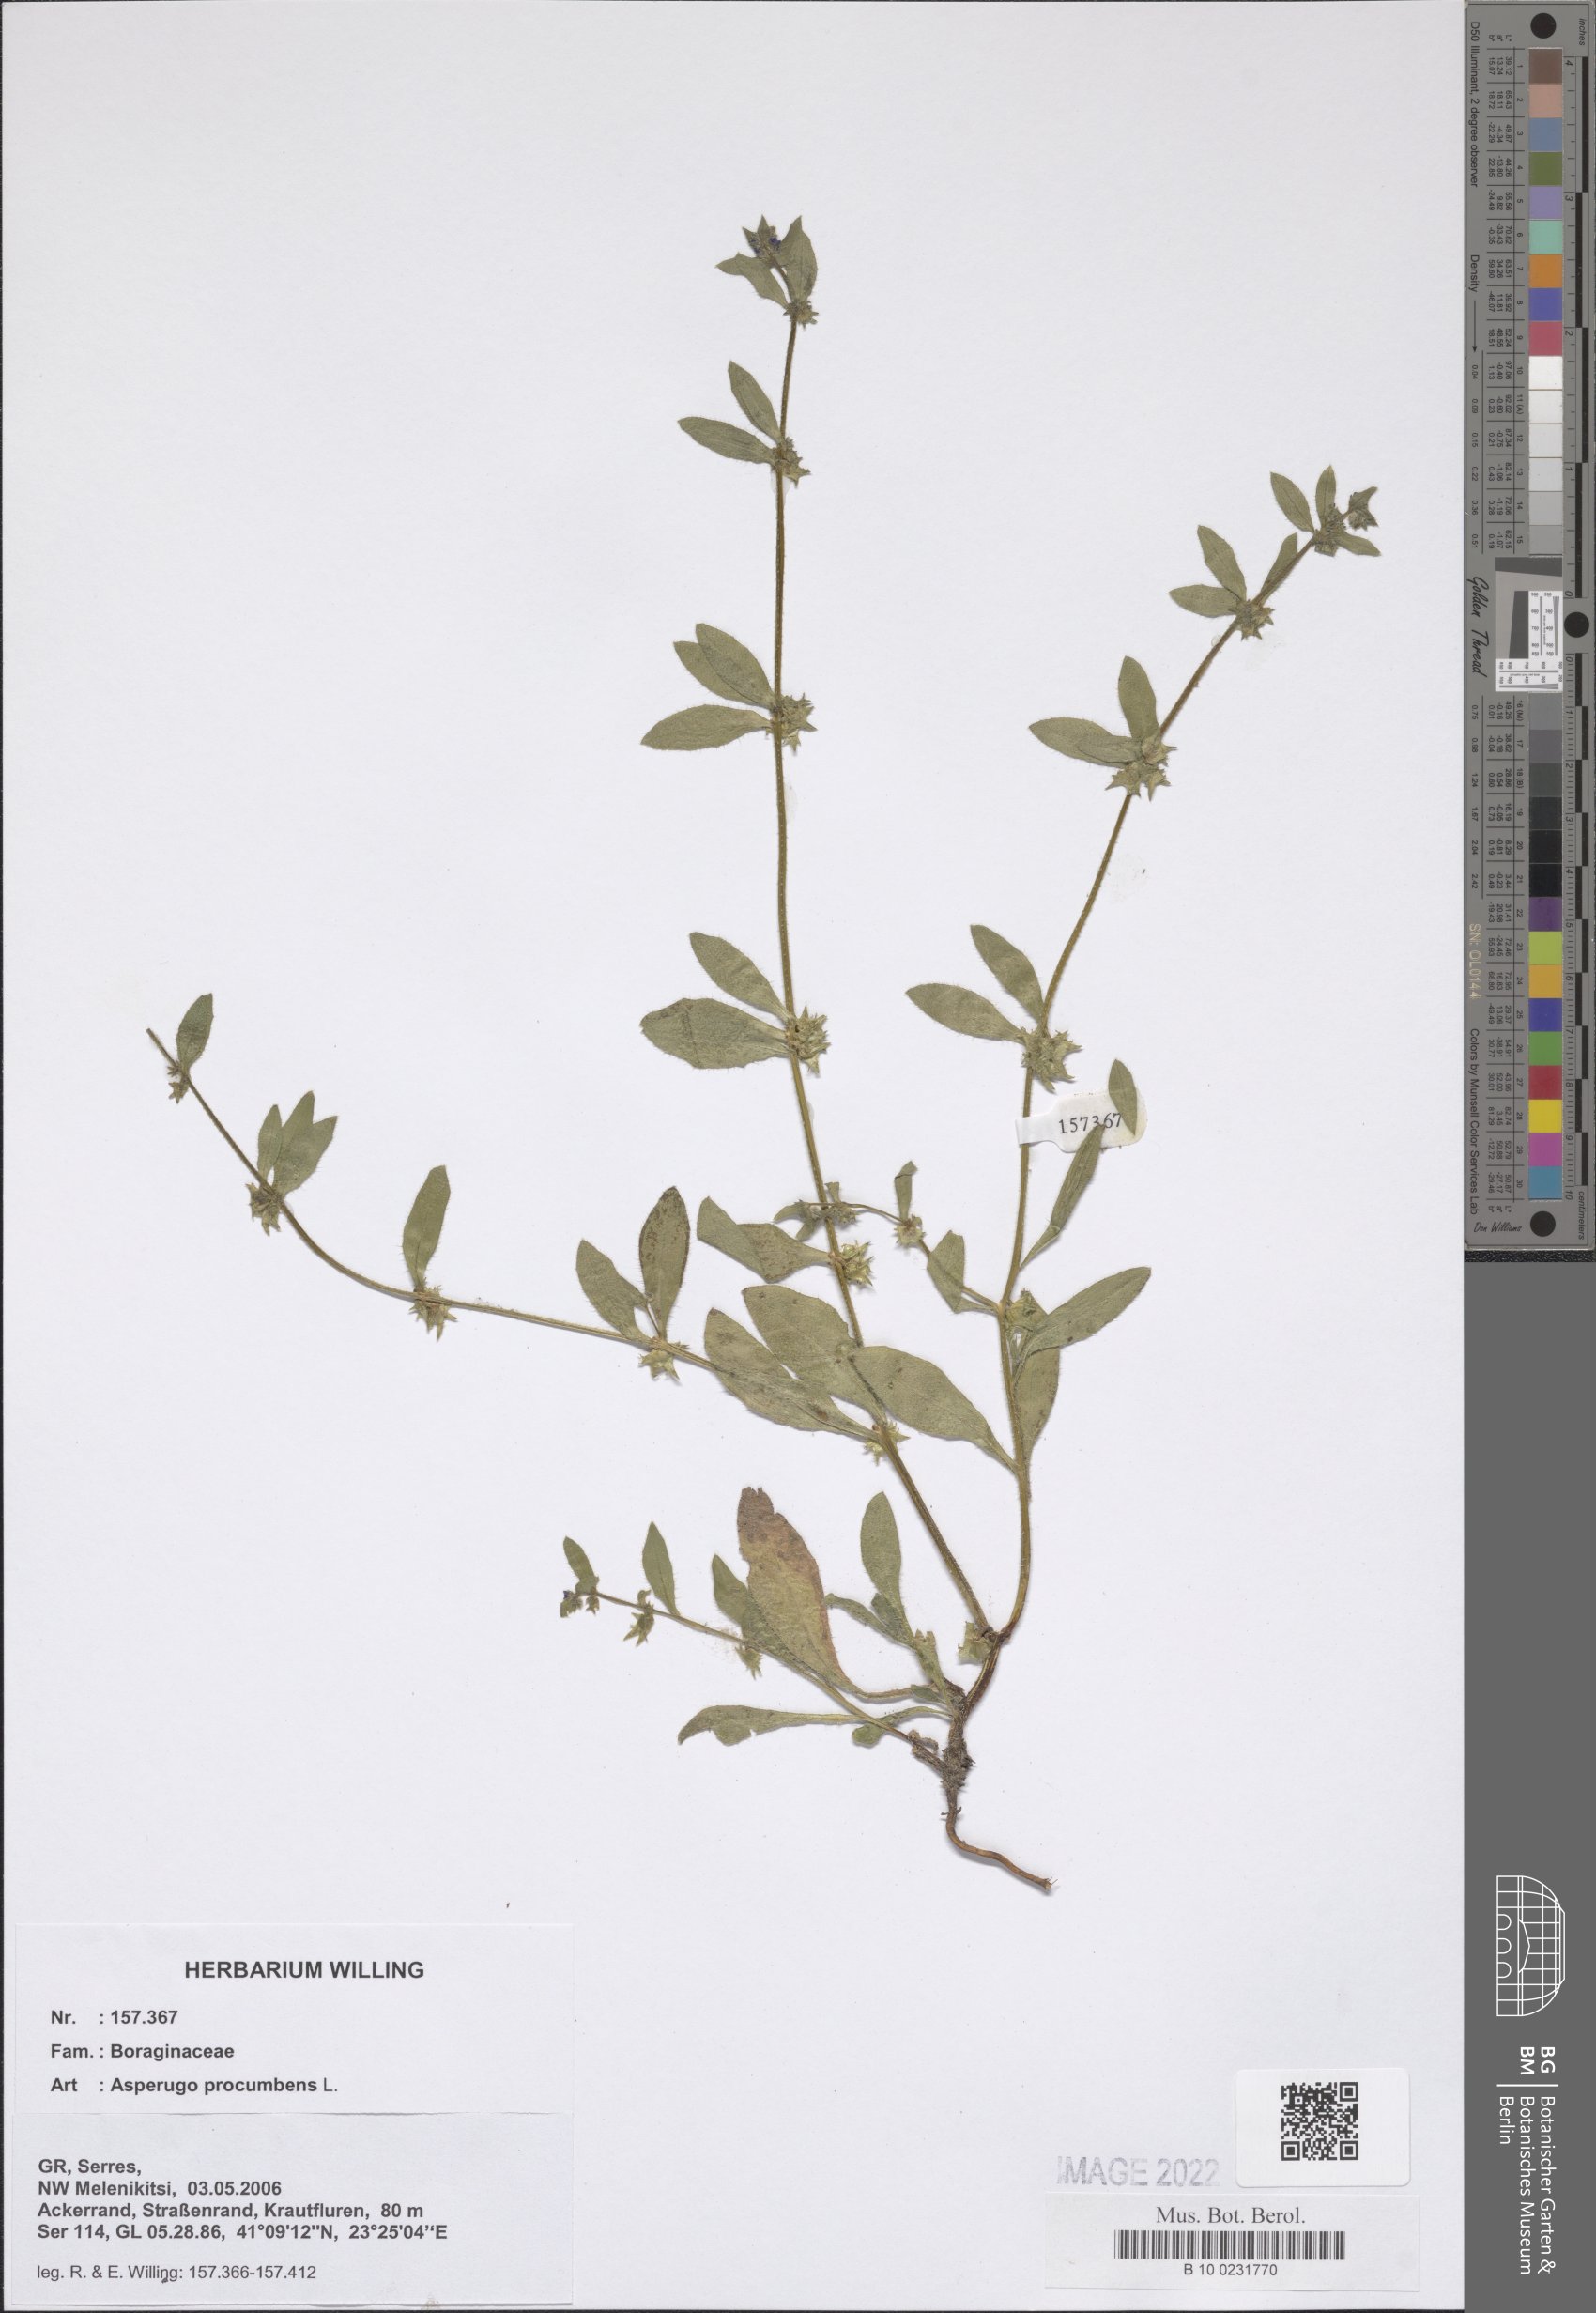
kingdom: Plantae
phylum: Tracheophyta
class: Magnoliopsida
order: Boraginales
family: Boraginaceae
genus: Asperugo
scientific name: Asperugo procumbens
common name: Madwort
